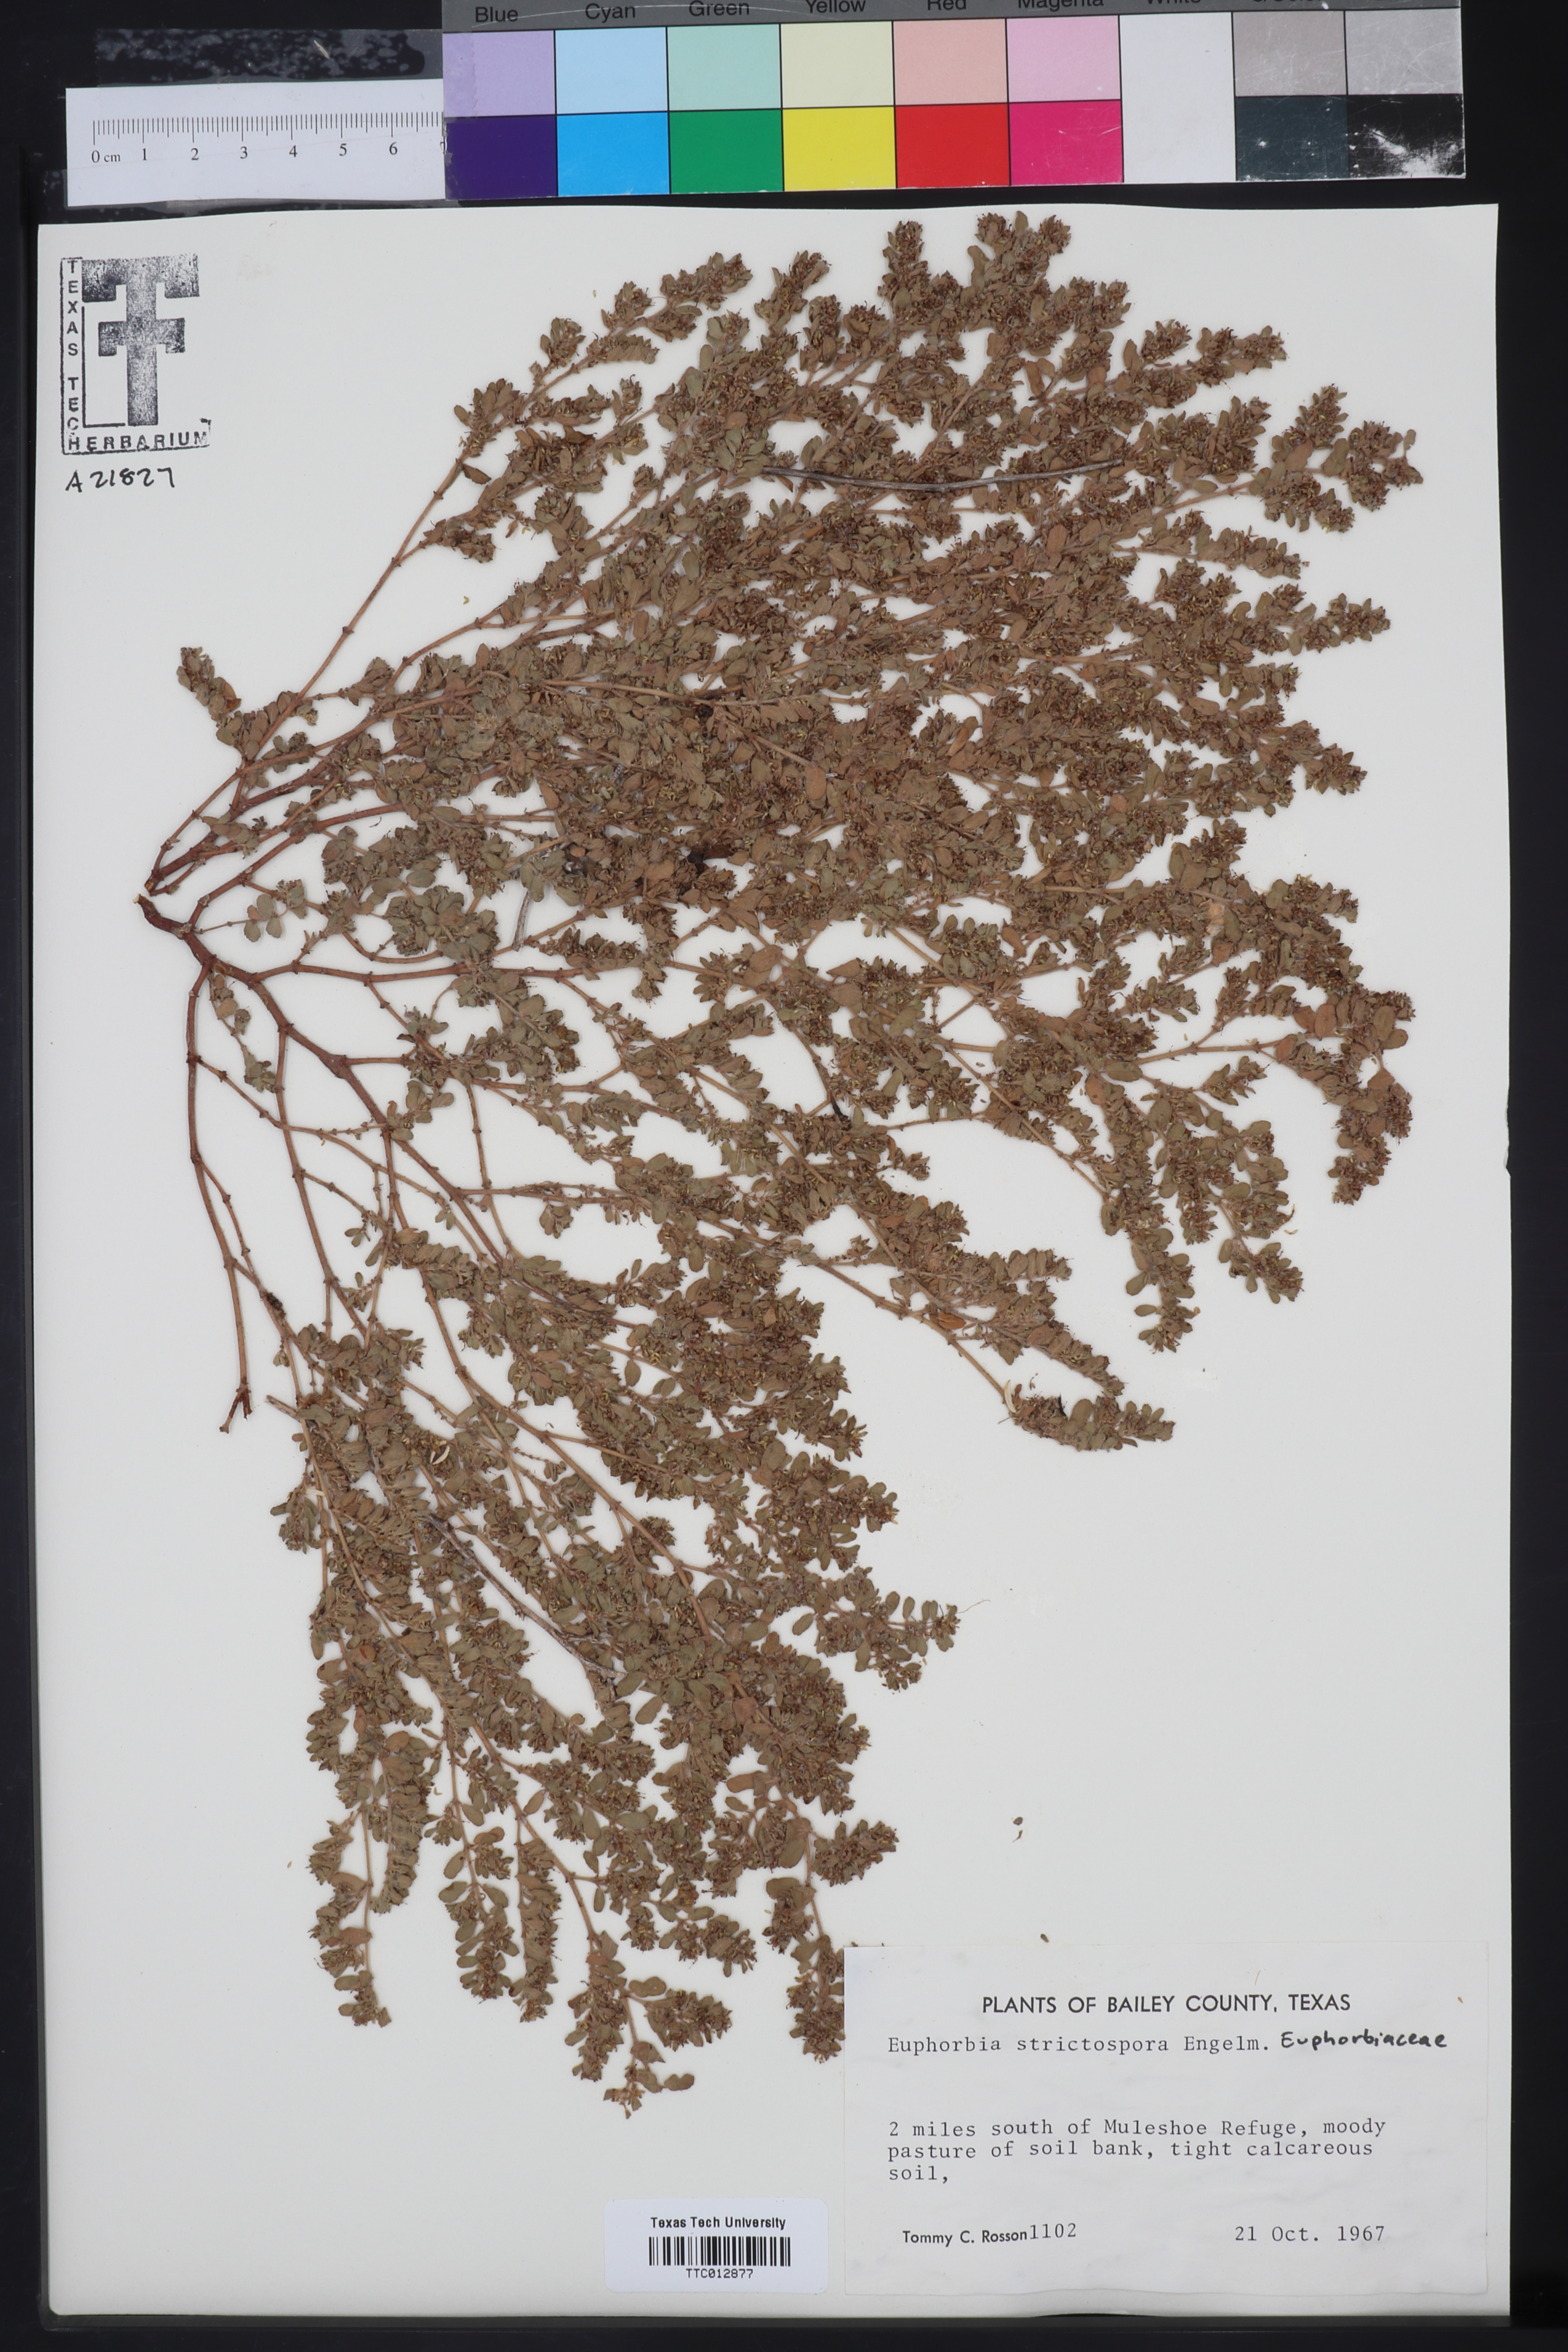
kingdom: Plantae
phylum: Tracheophyta
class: Magnoliopsida
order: Malpighiales
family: Euphorbiaceae
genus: Euphorbia
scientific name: Euphorbia
